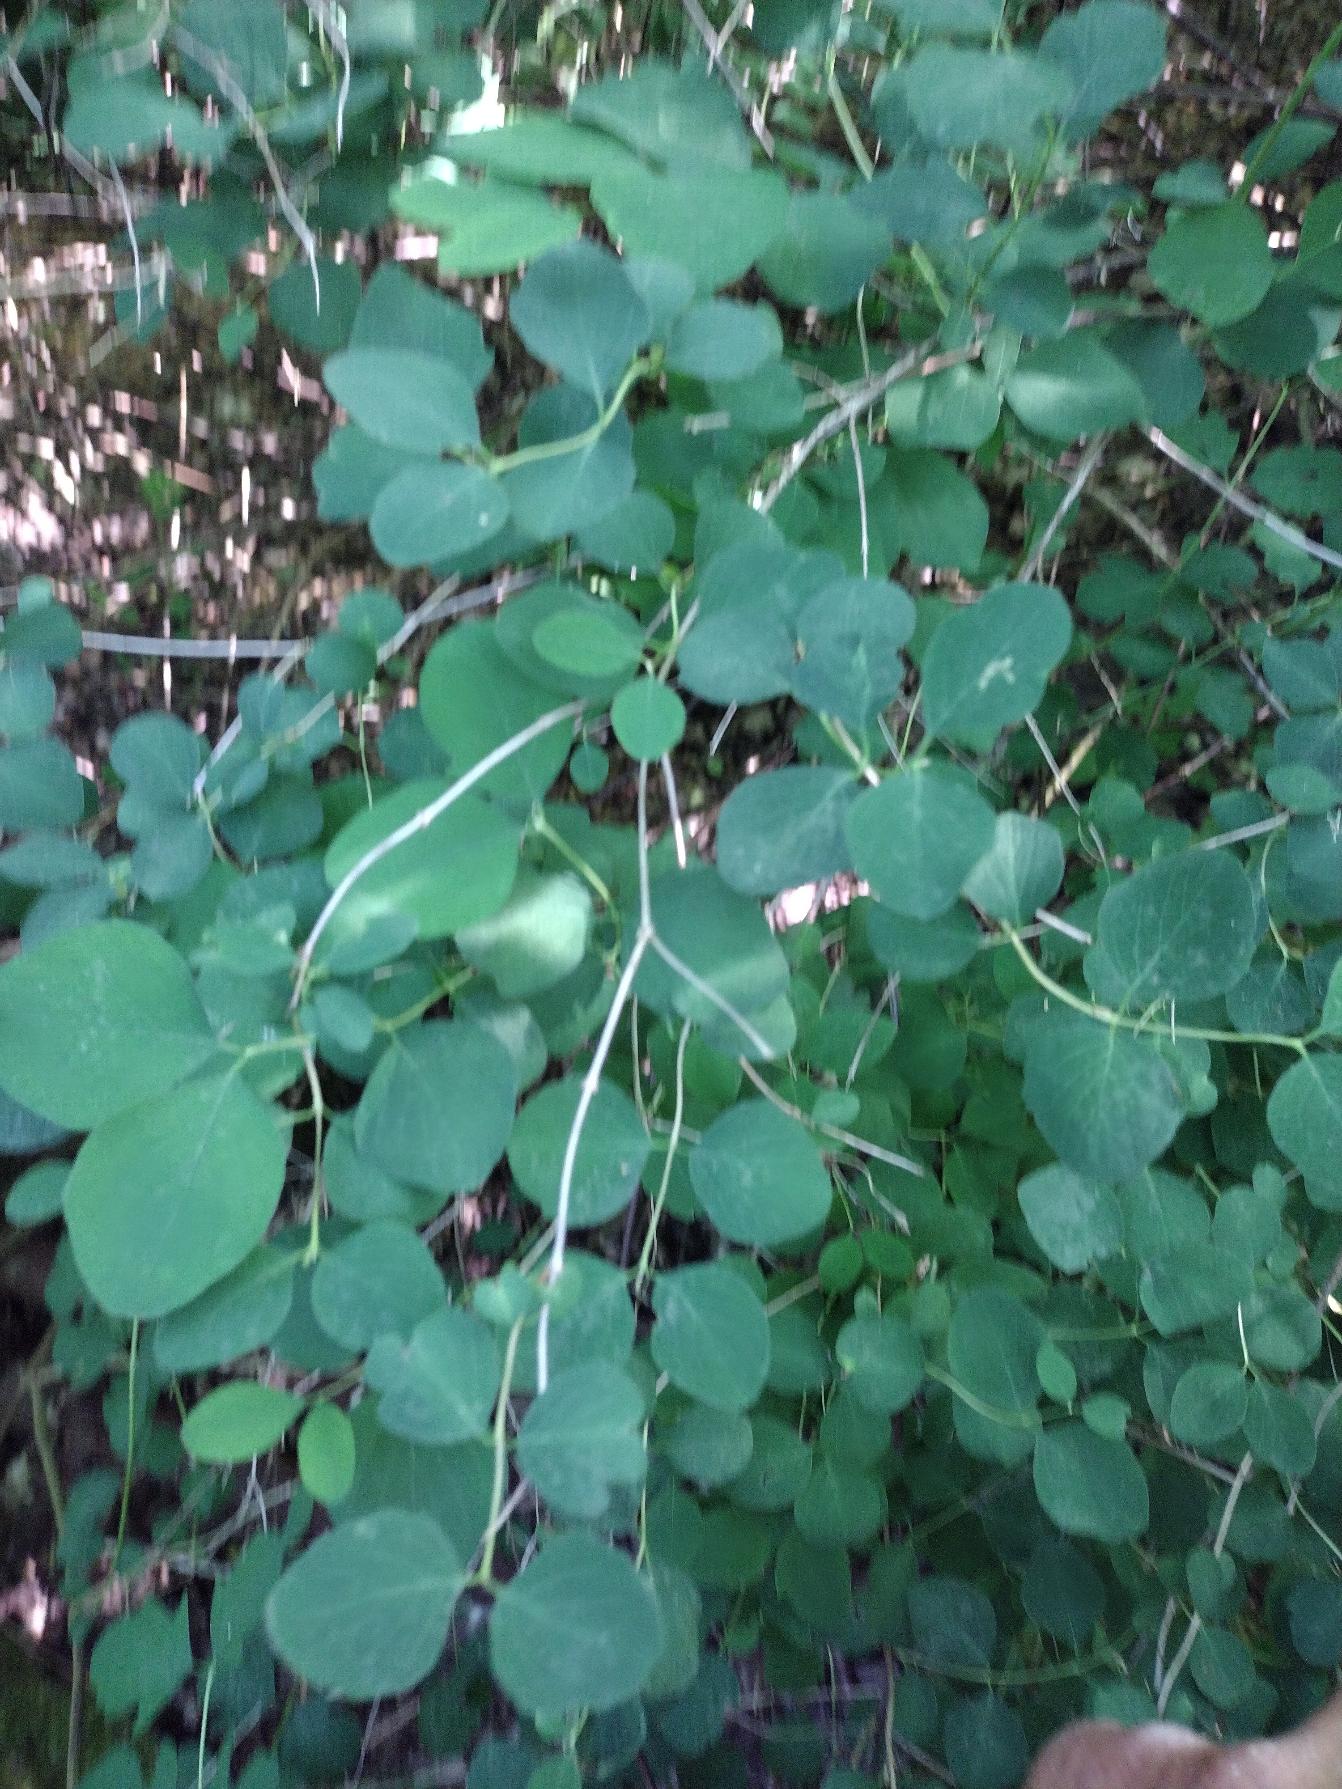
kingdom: Plantae
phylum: Tracheophyta
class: Magnoliopsida
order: Dipsacales
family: Caprifoliaceae
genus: Symphoricarpos
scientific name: Symphoricarpos albus
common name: Almindelig snebær
